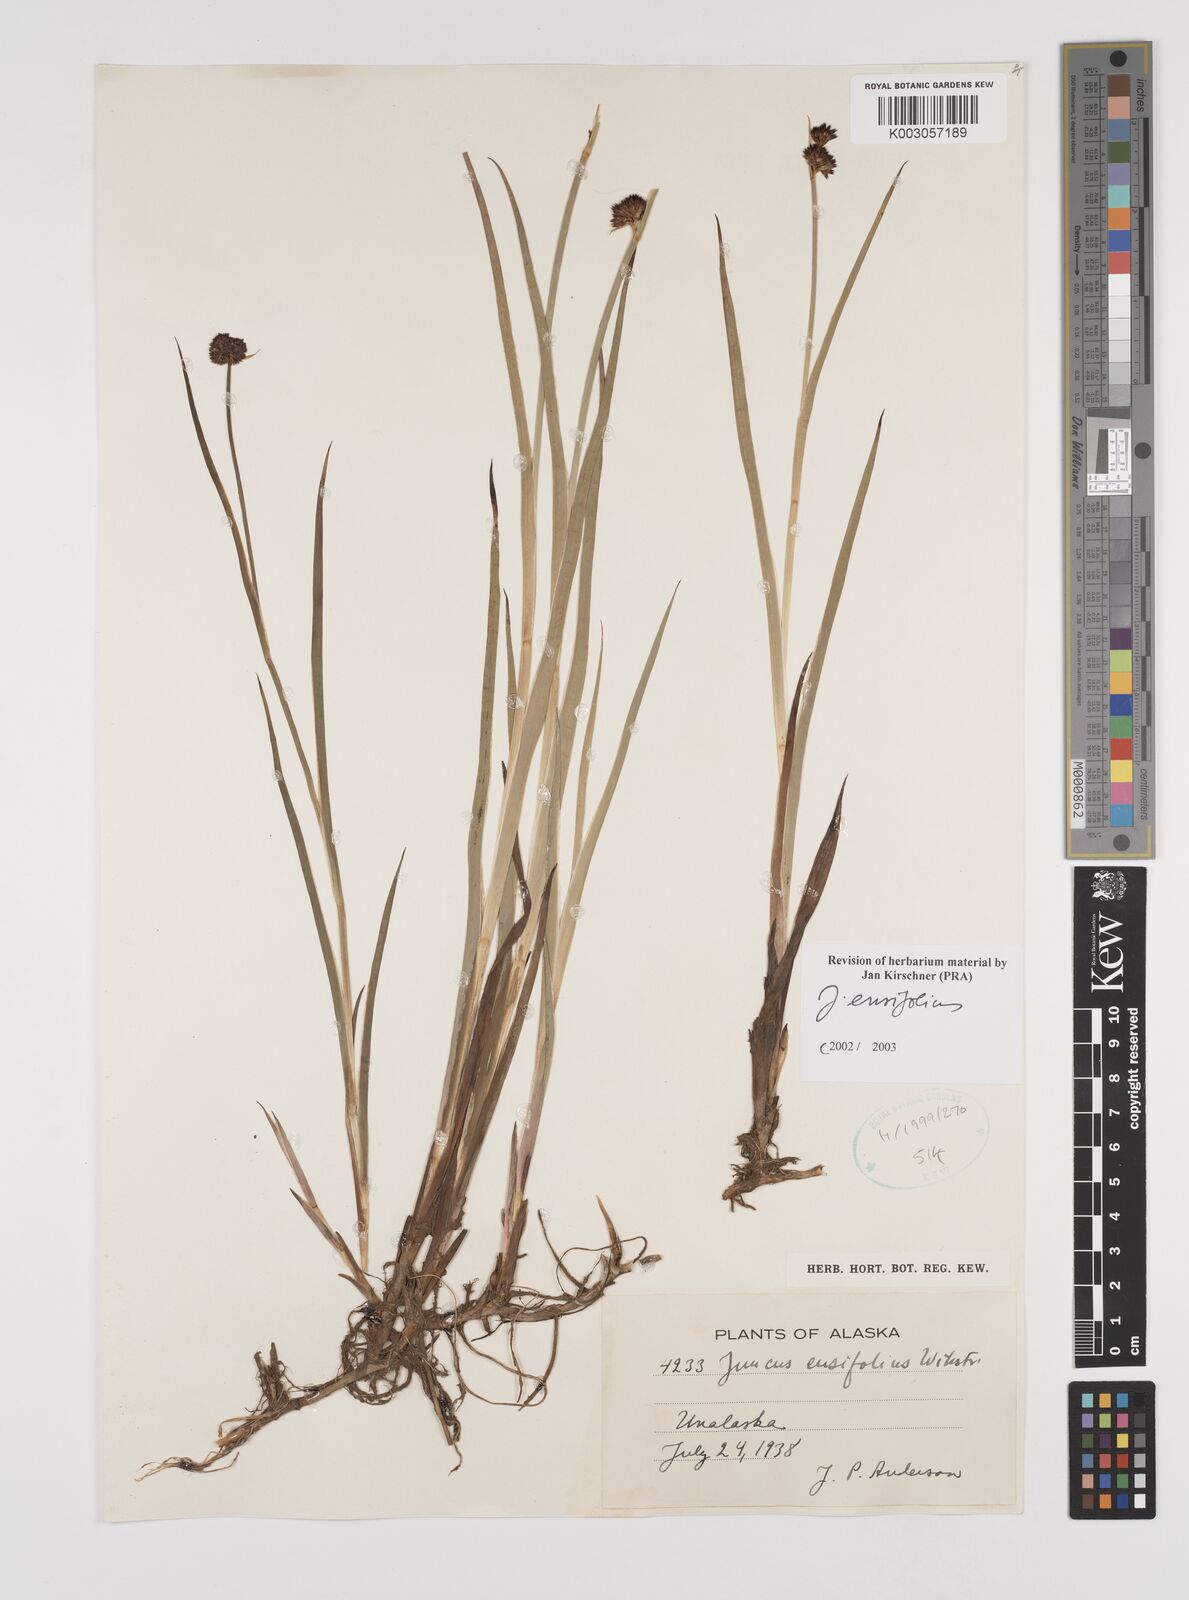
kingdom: Plantae
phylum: Tracheophyta
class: Liliopsida
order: Poales
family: Juncaceae
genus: Juncus
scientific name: Juncus ensifolius
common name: Sword-leaved rush
